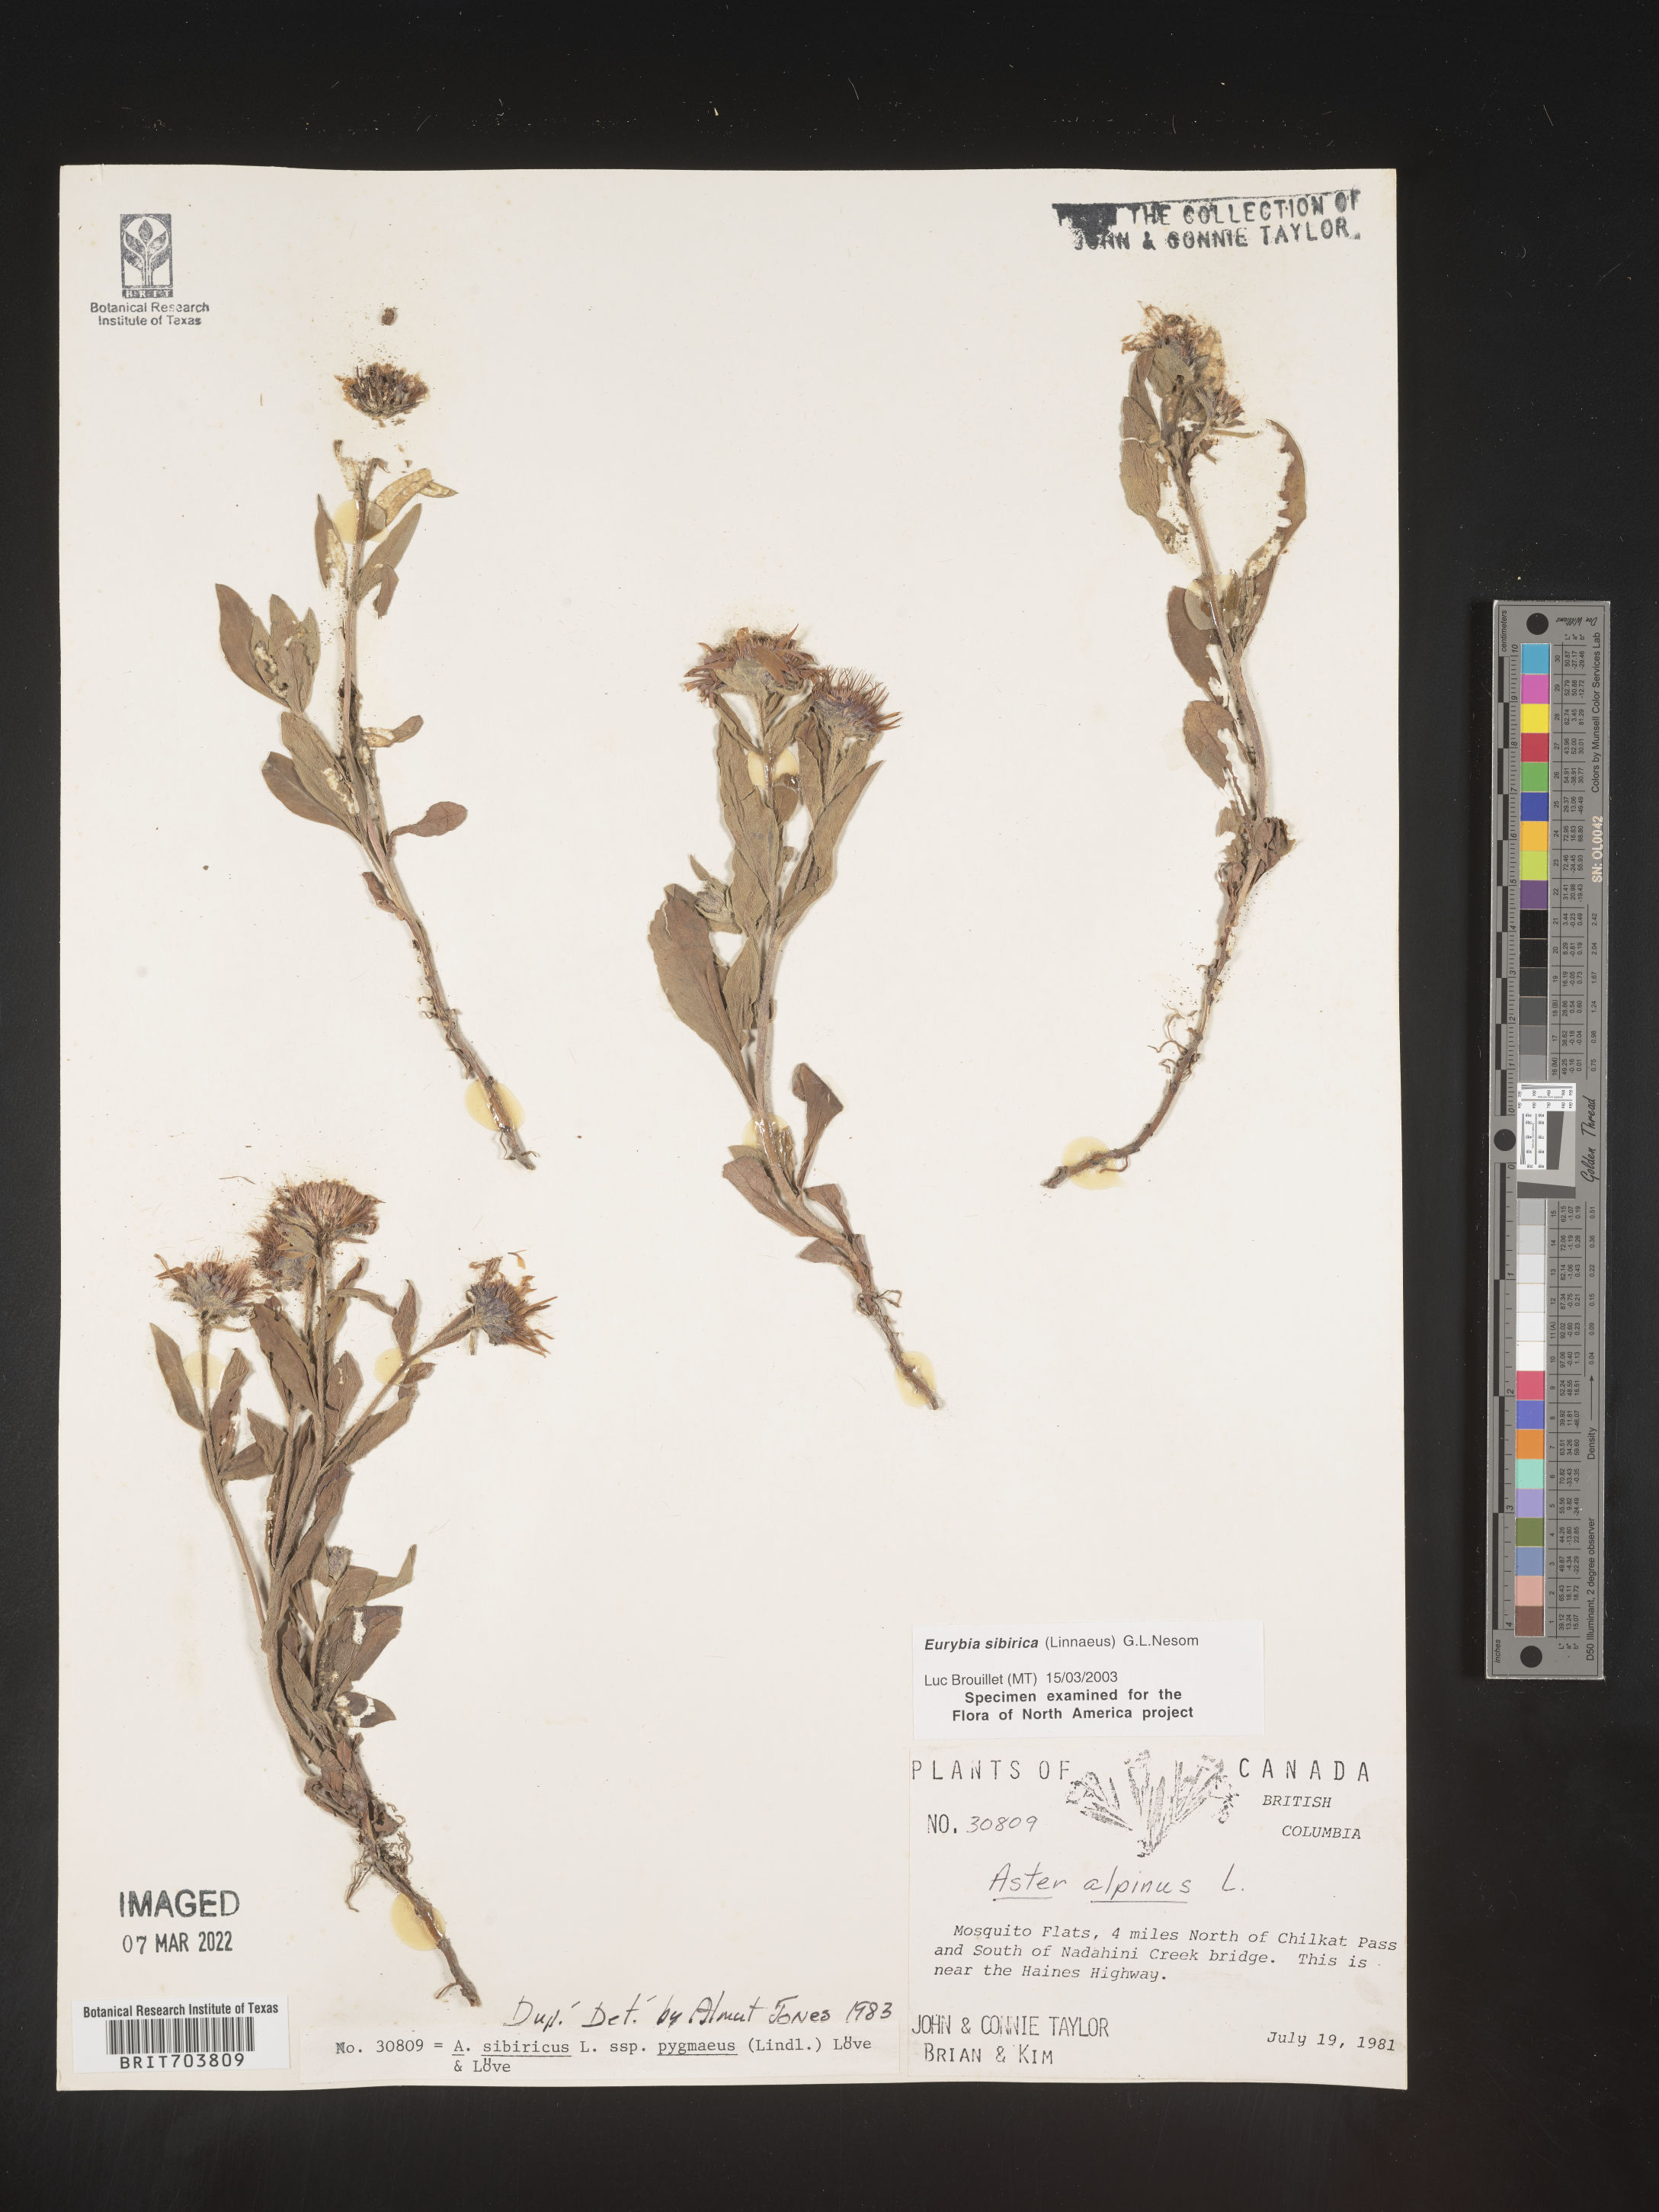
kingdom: Plantae
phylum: Tracheophyta
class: Magnoliopsida
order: Asterales
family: Asteraceae
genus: Eurybia
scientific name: Eurybia sibirica
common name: Arctic aster
